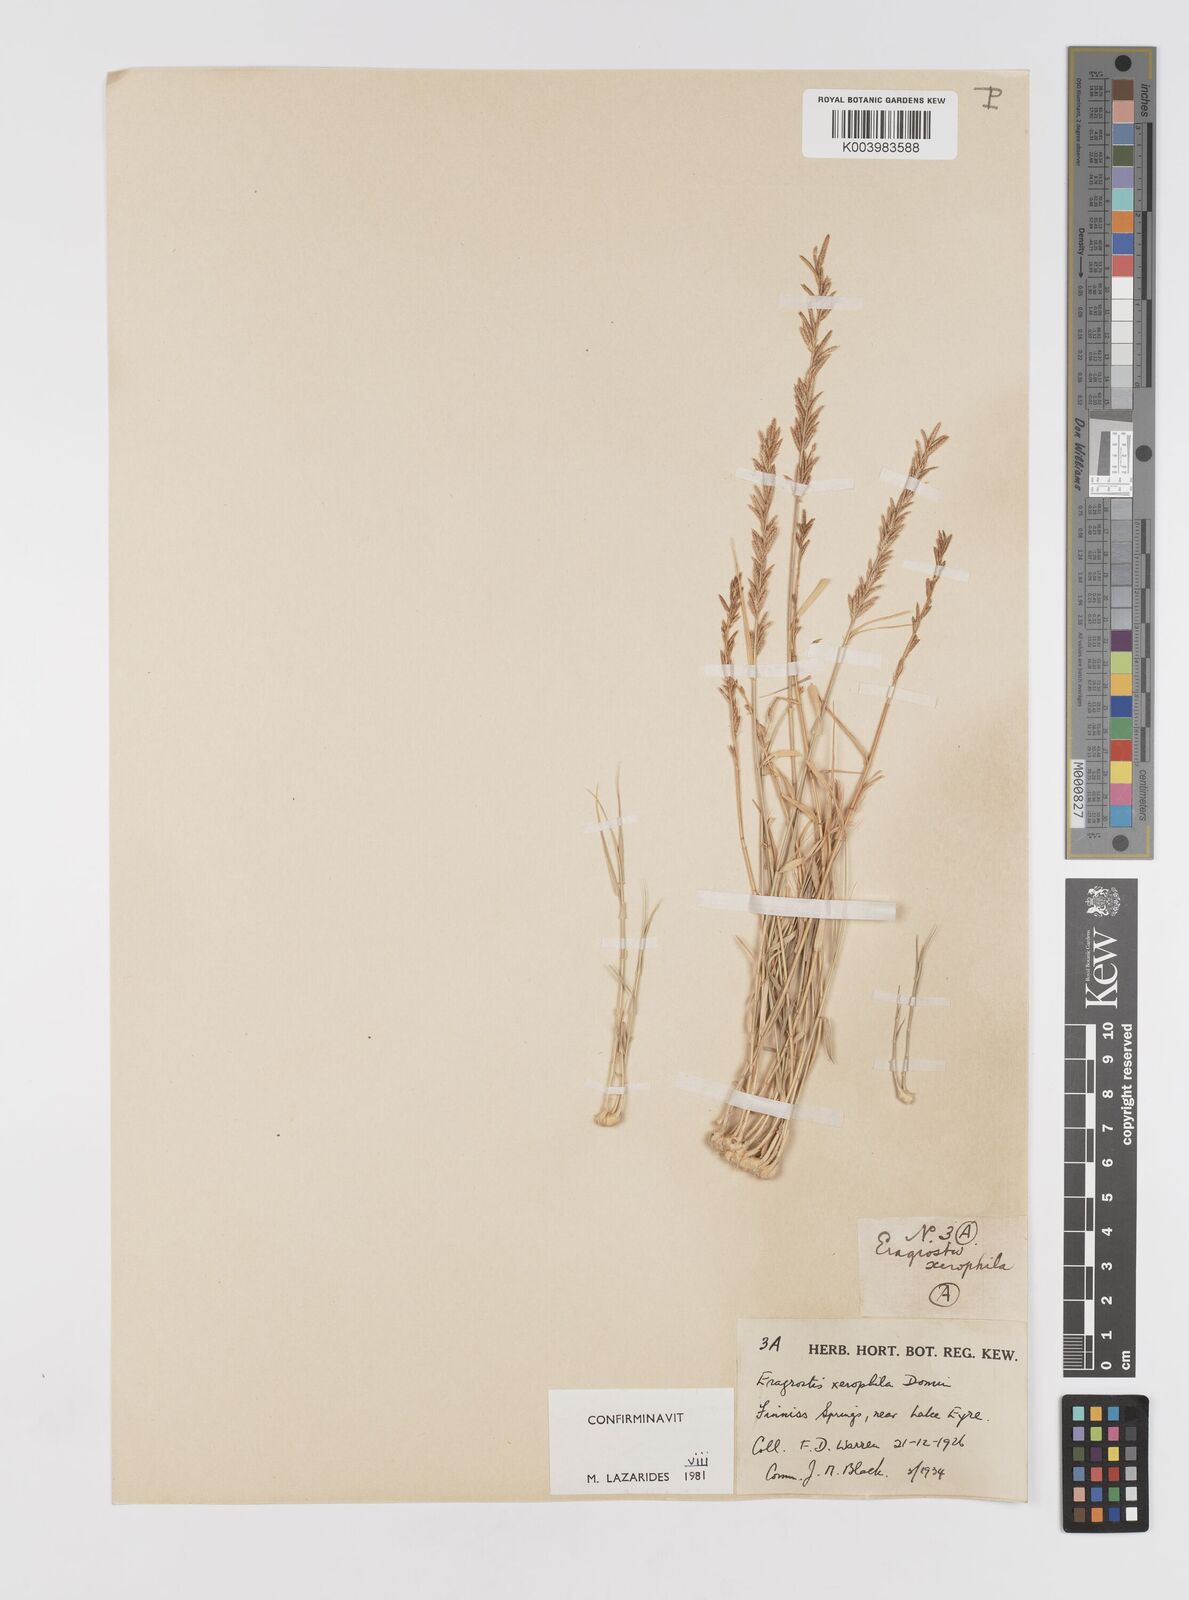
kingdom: Plantae
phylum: Tracheophyta
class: Liliopsida
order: Poales
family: Poaceae
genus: Eragrostis
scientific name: Eragrostis xerophila
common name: Wire wandarrie grass
